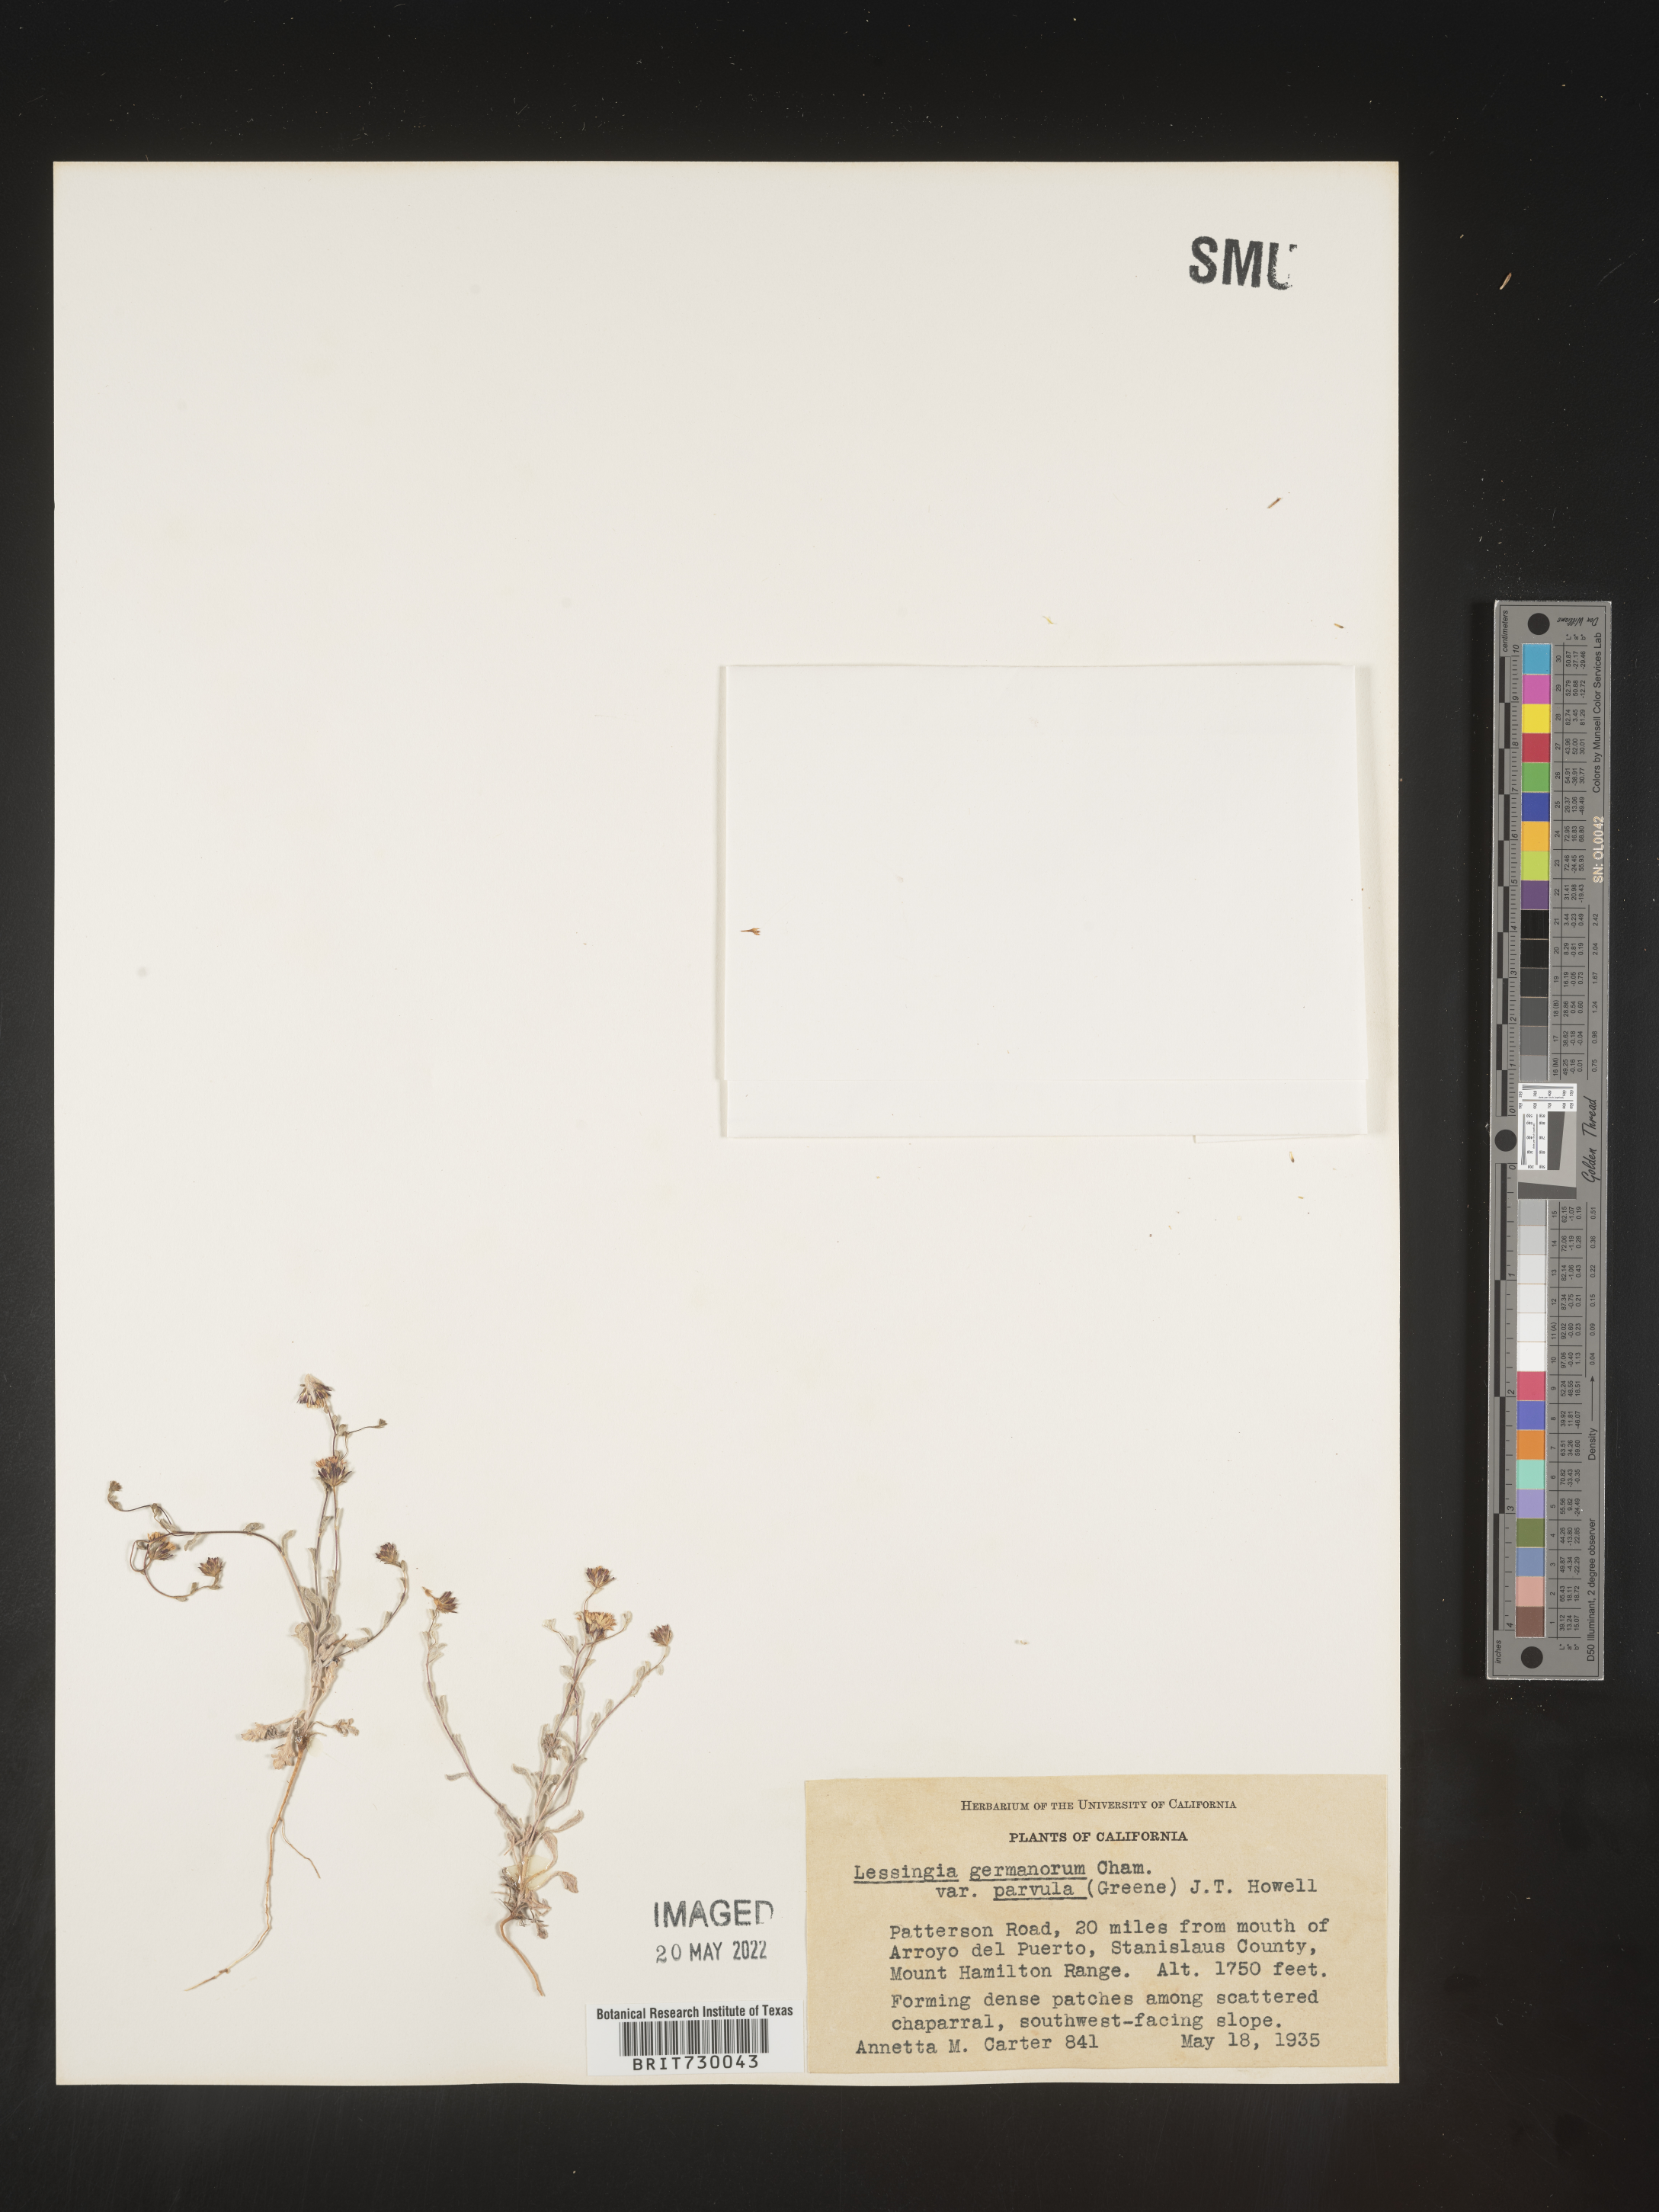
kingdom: Plantae
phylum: Tracheophyta
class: Magnoliopsida
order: Asterales
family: Asteraceae
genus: Lessingia
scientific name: Lessingia
